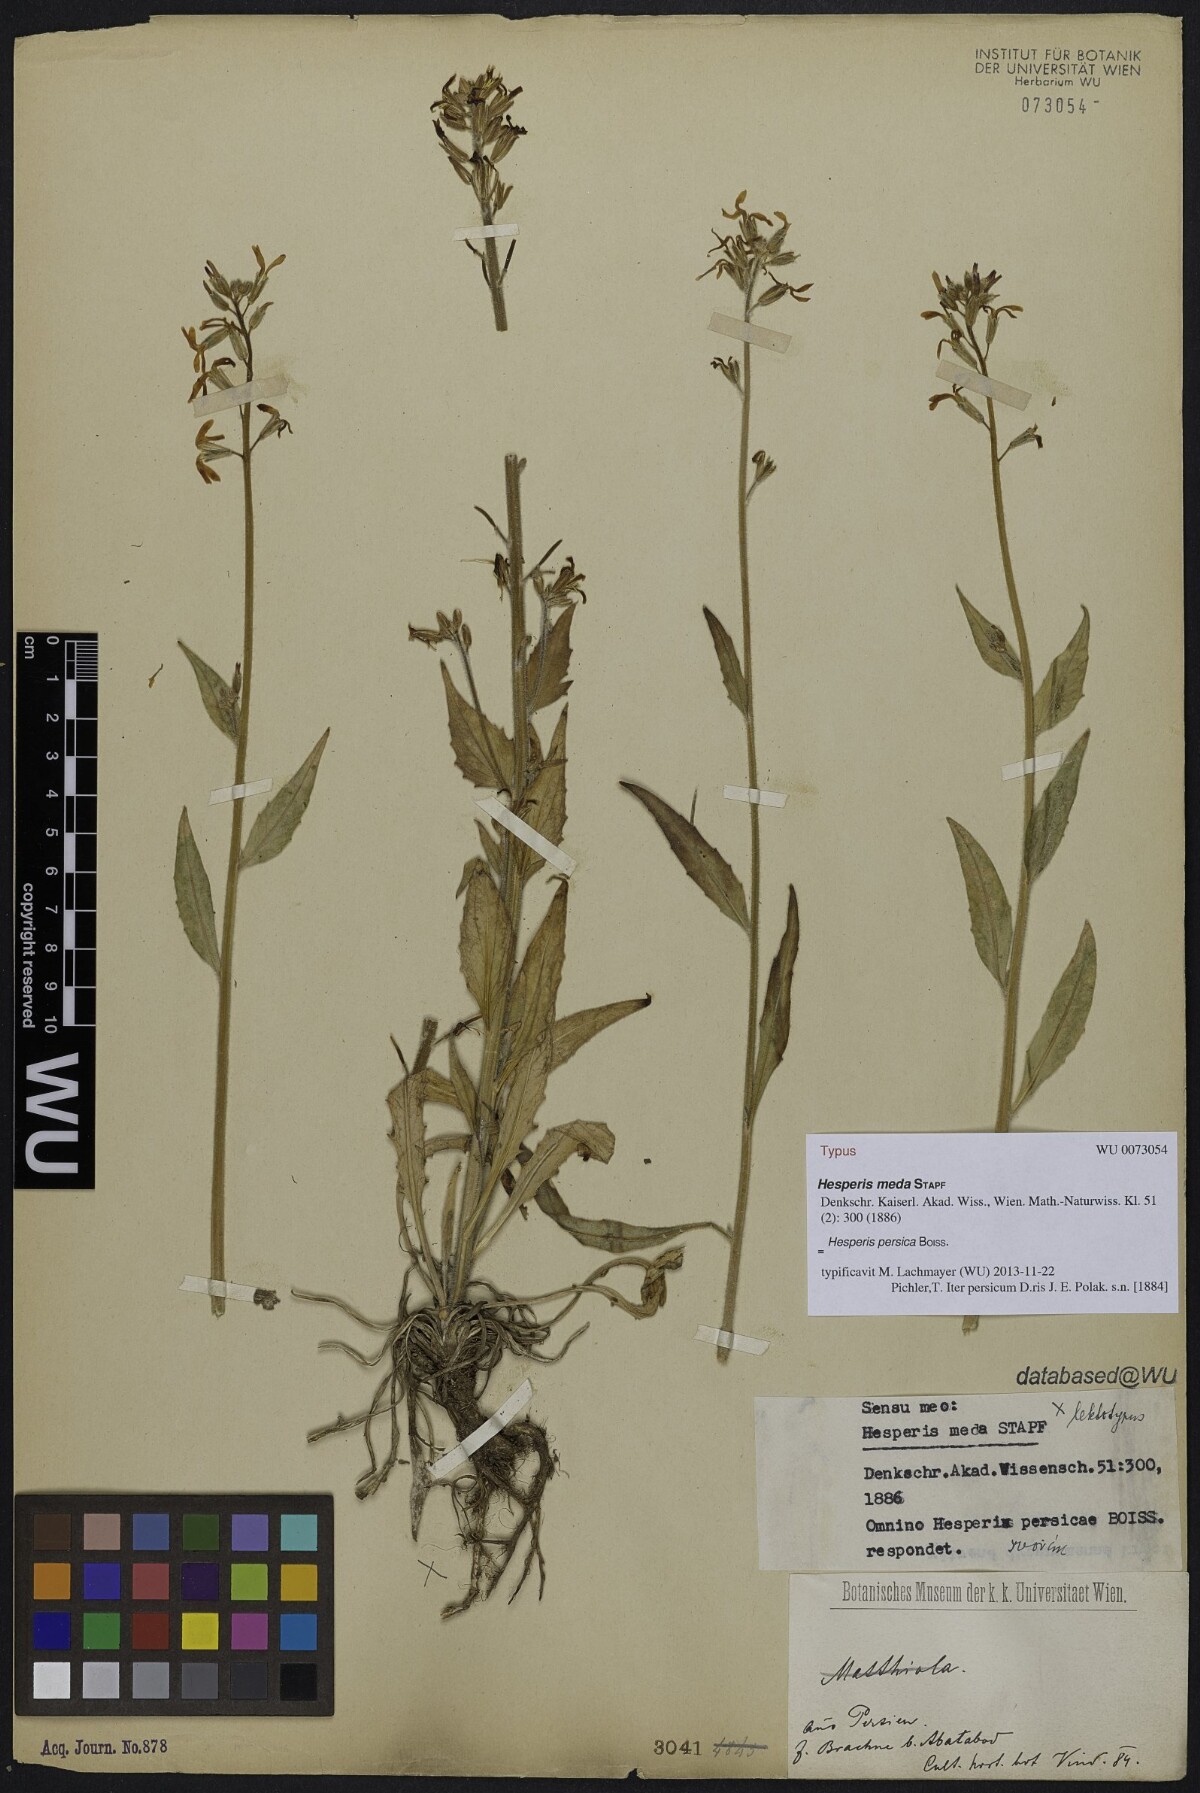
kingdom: Plantae
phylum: Tracheophyta
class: Magnoliopsida
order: Brassicales
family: Brassicaceae
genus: Hesperis
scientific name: Hesperis persica
